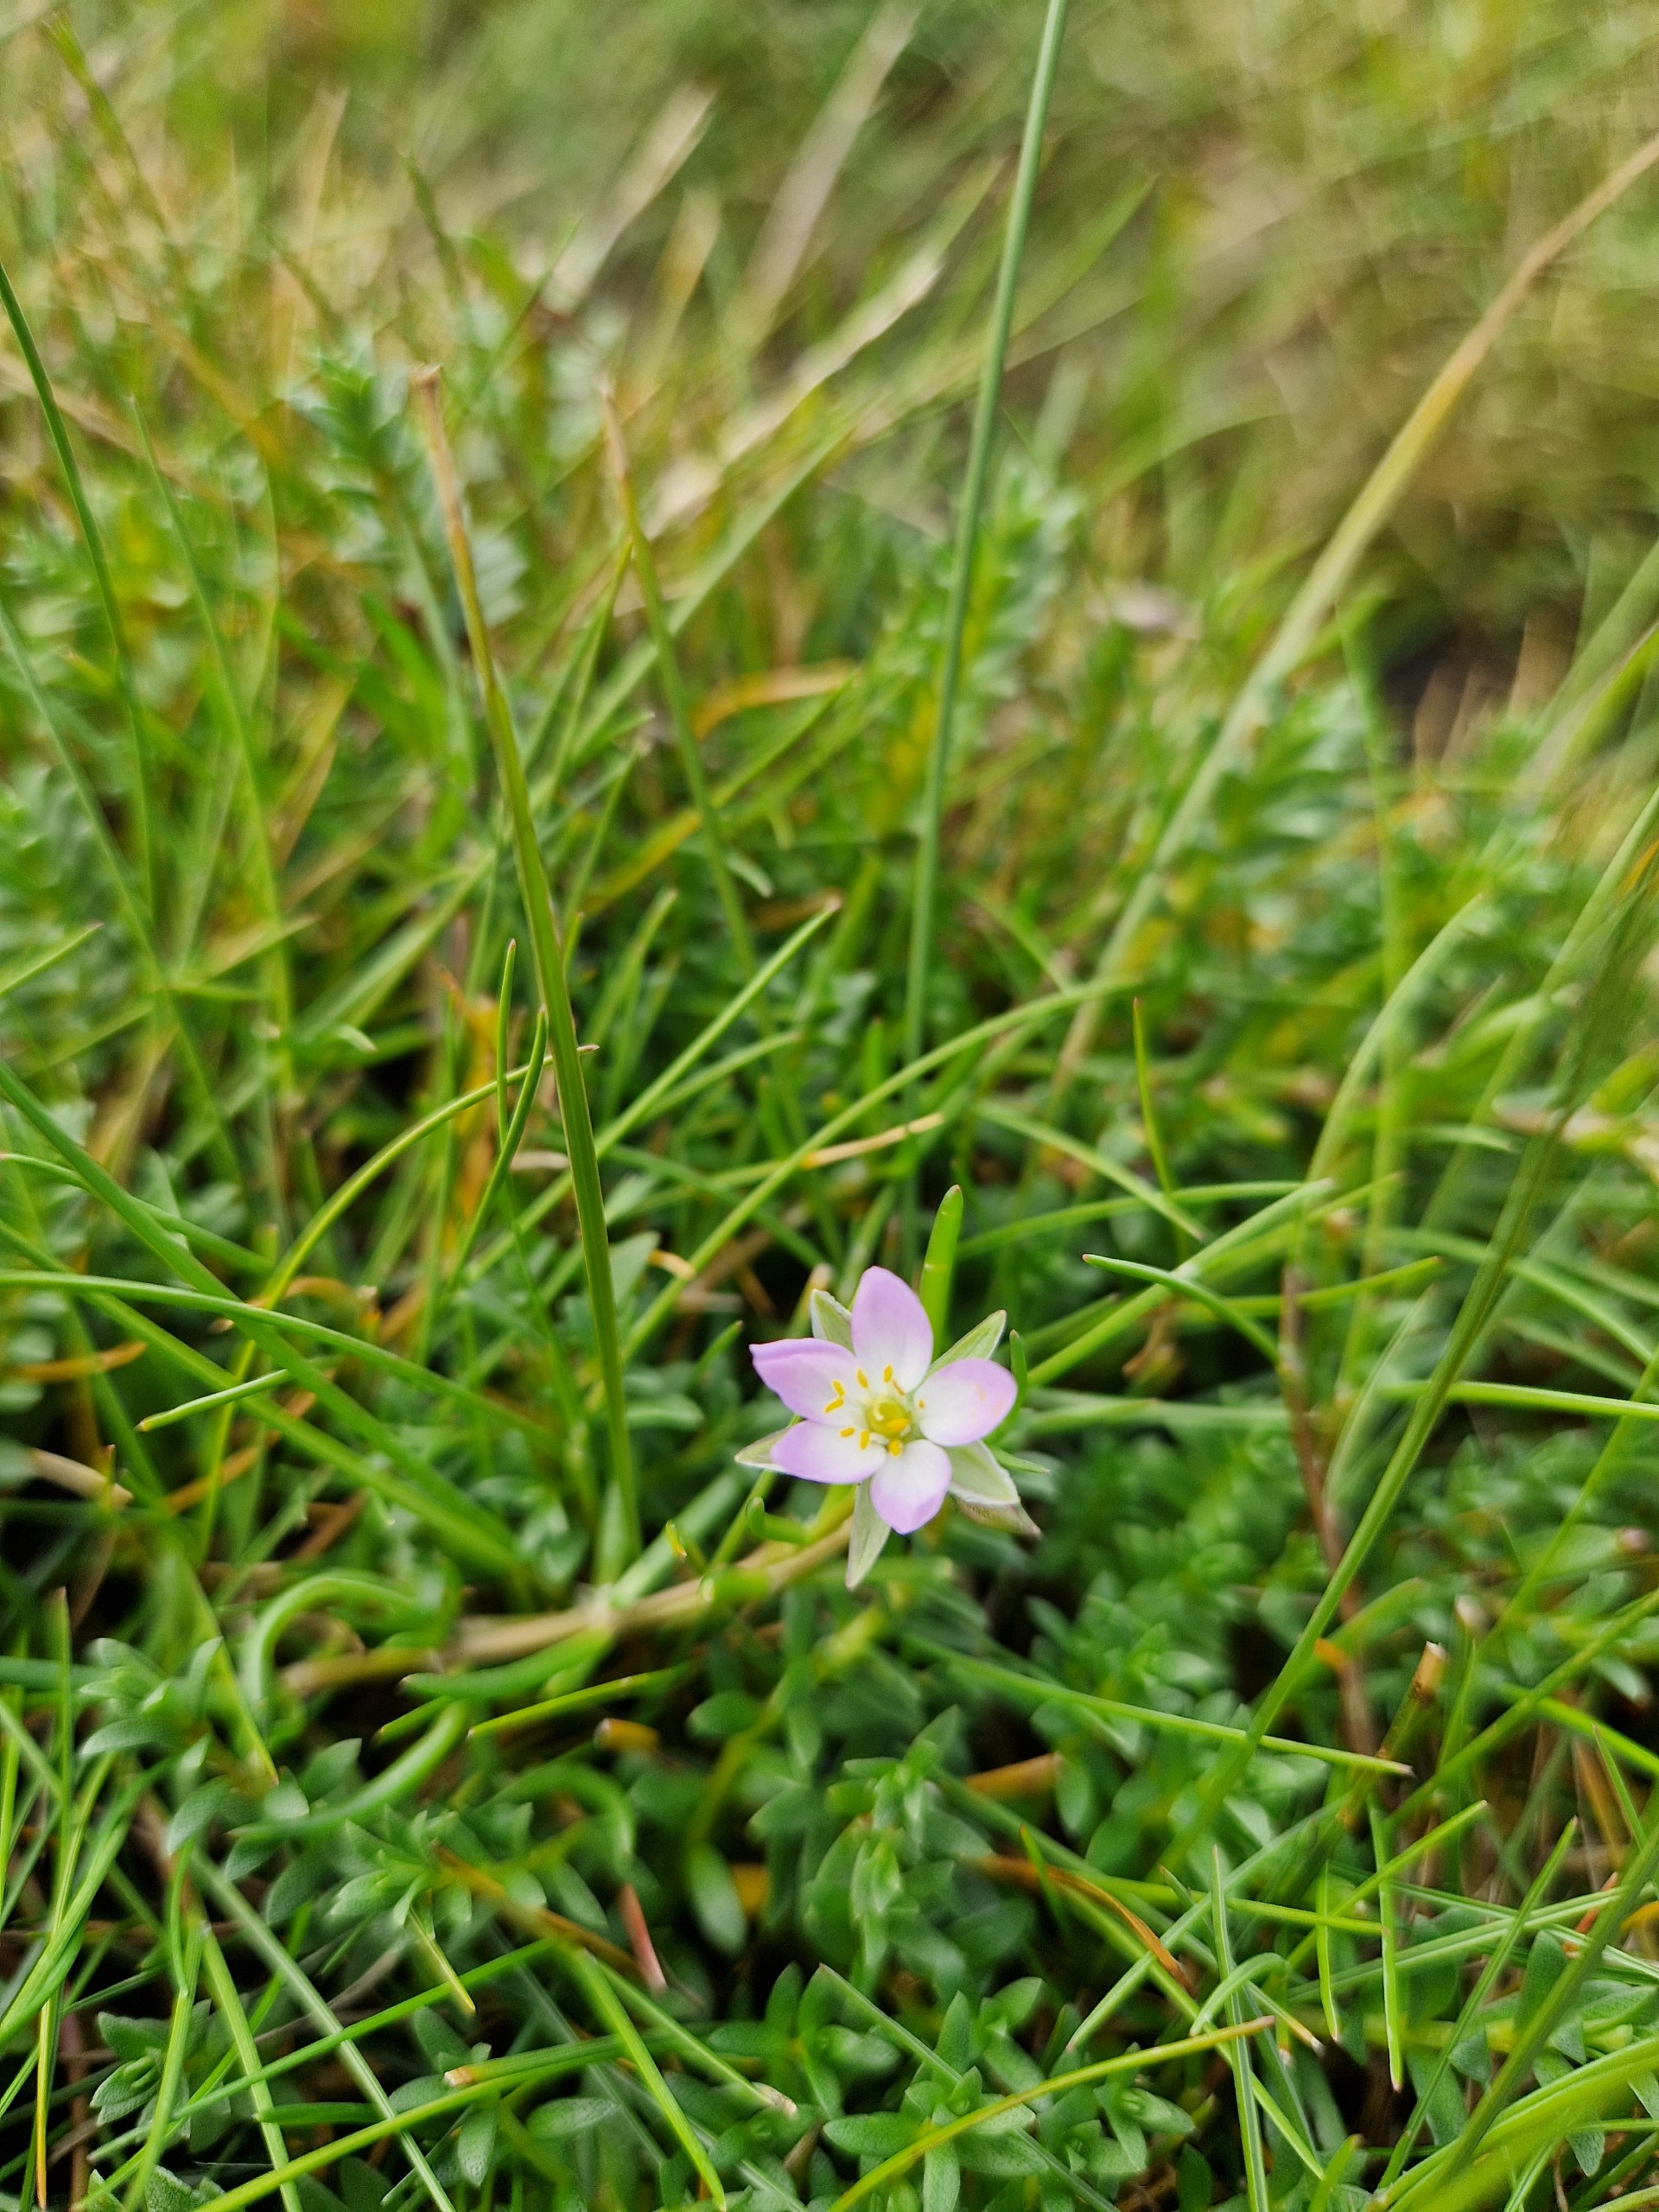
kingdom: Plantae
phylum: Tracheophyta
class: Magnoliopsida
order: Caryophyllales
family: Caryophyllaceae
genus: Spergularia
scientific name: Spergularia media
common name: Vingefrøet hindeknæ
